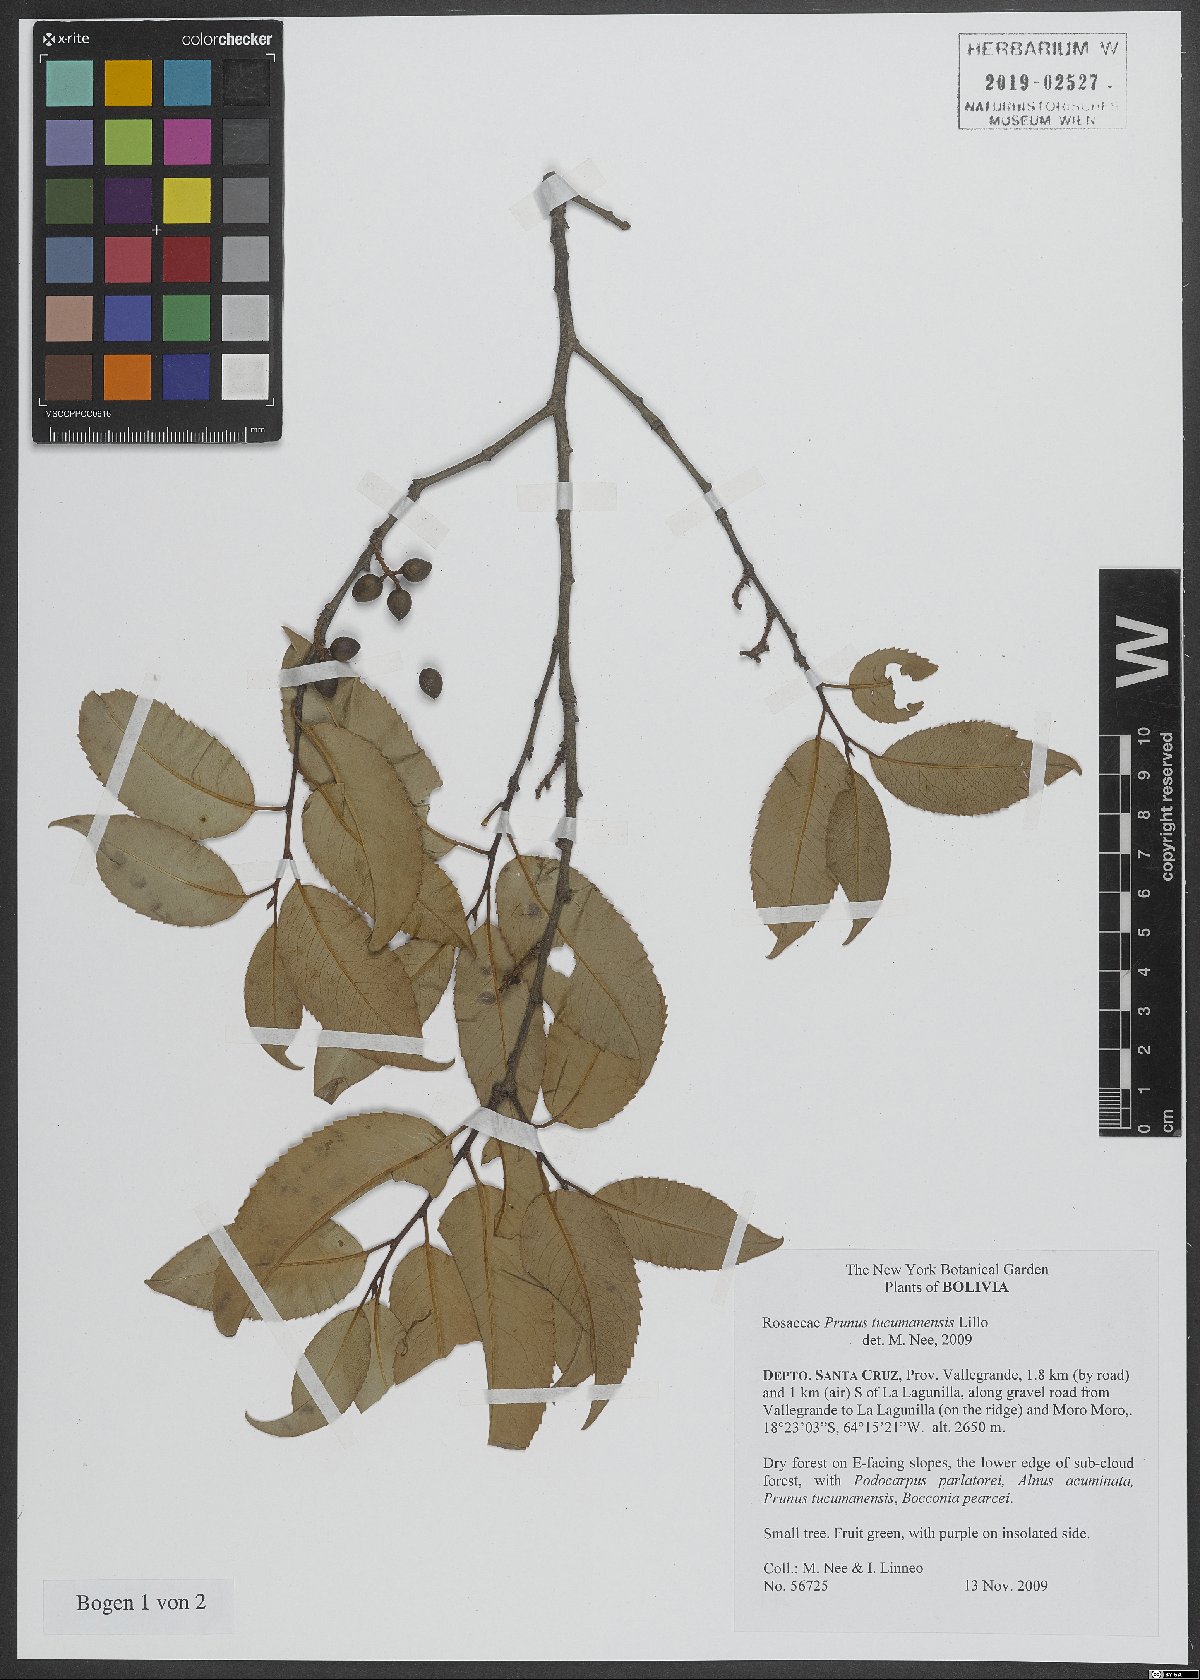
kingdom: Plantae
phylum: Tracheophyta
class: Magnoliopsida
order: Rosales
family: Rosaceae
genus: Prunus
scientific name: Prunus tucumanensis
